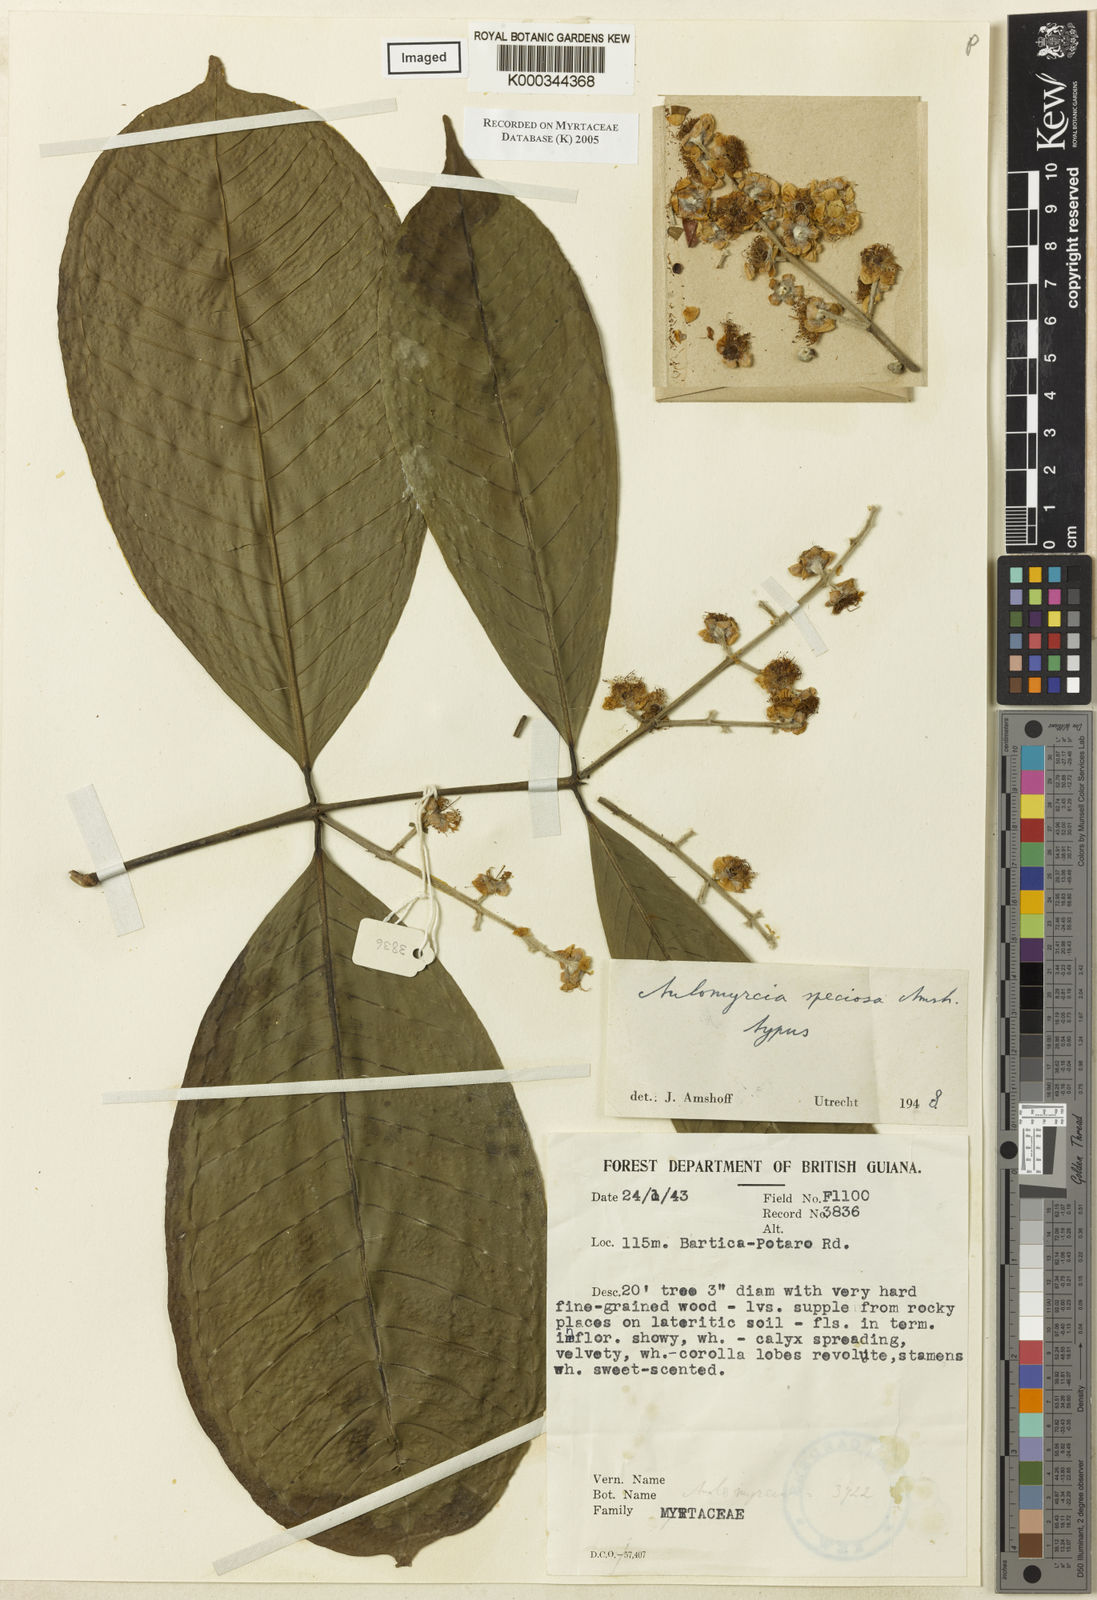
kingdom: Plantae
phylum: Tracheophyta
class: Magnoliopsida
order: Myrtales
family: Myrtaceae
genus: Myrcia
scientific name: Myrcia speciosa
